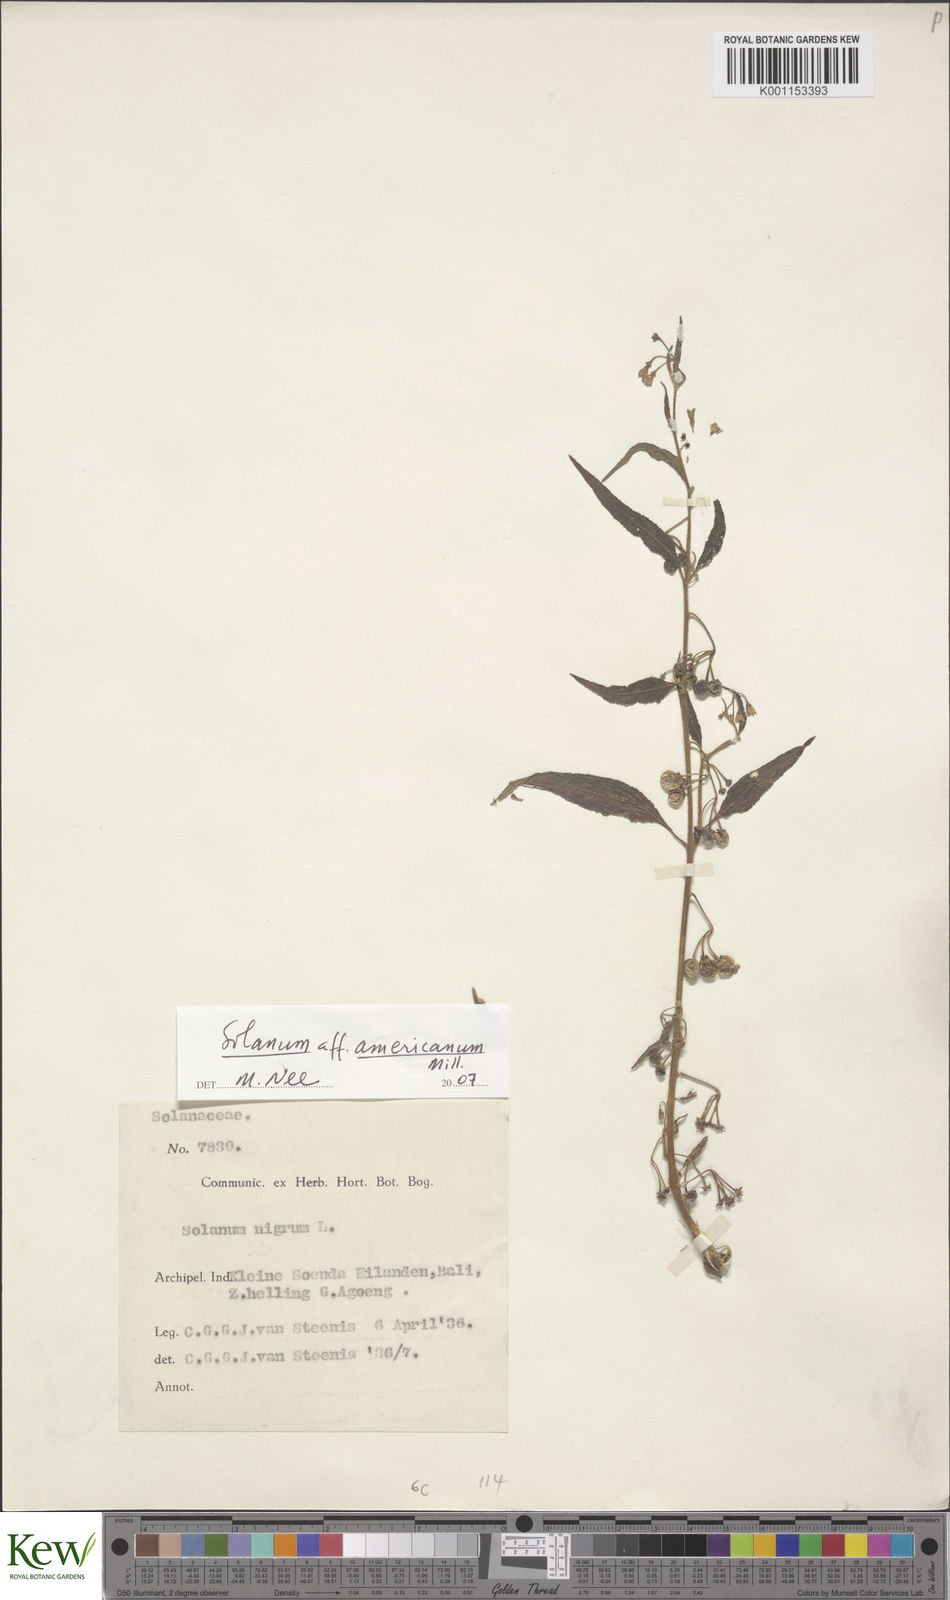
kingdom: Plantae
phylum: Tracheophyta
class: Magnoliopsida
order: Solanales
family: Solanaceae
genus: Solanum
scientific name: Solanum americanum
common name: American black nightshade
